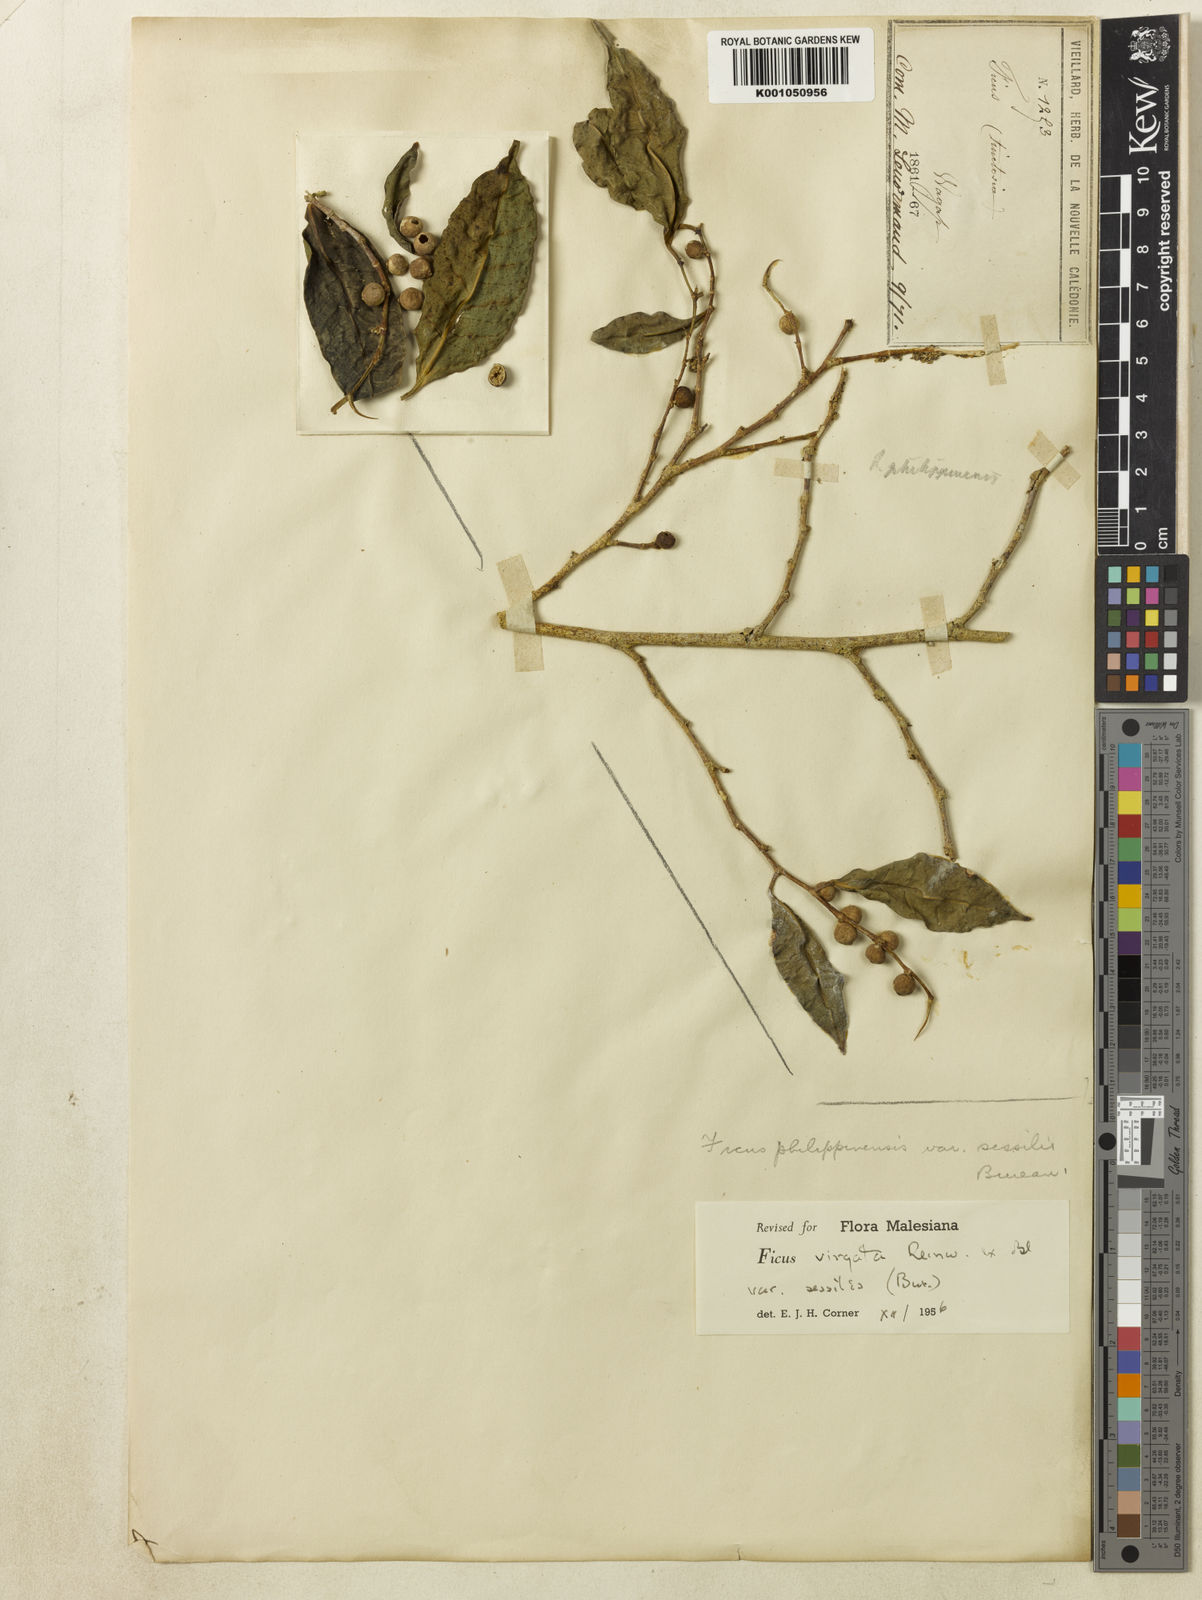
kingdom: Plantae
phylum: Tracheophyta
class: Magnoliopsida
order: Rosales
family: Moraceae
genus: Ficus
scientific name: Ficus virgata
